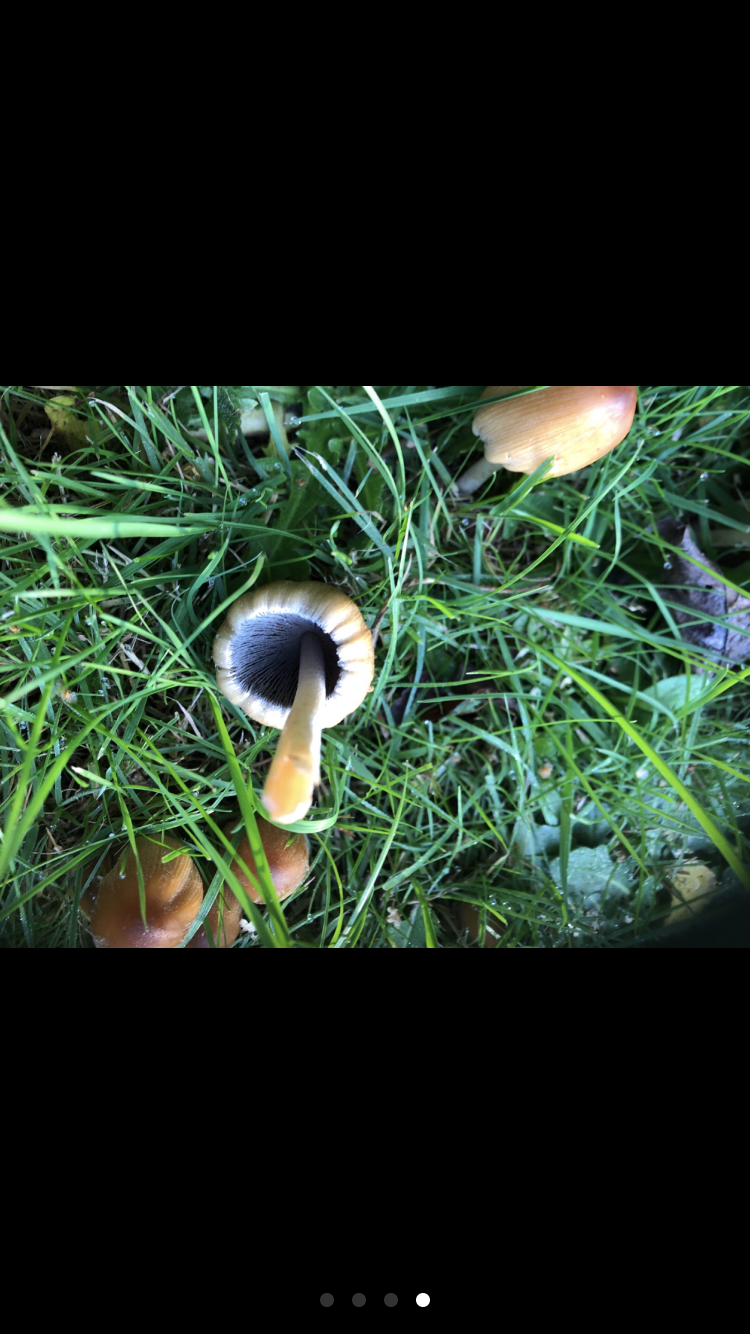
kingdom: Fungi
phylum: Basidiomycota
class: Agaricomycetes
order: Agaricales
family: Psathyrellaceae
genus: Coprinellus
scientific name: Coprinellus micaceus
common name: glimmer-blækhat
